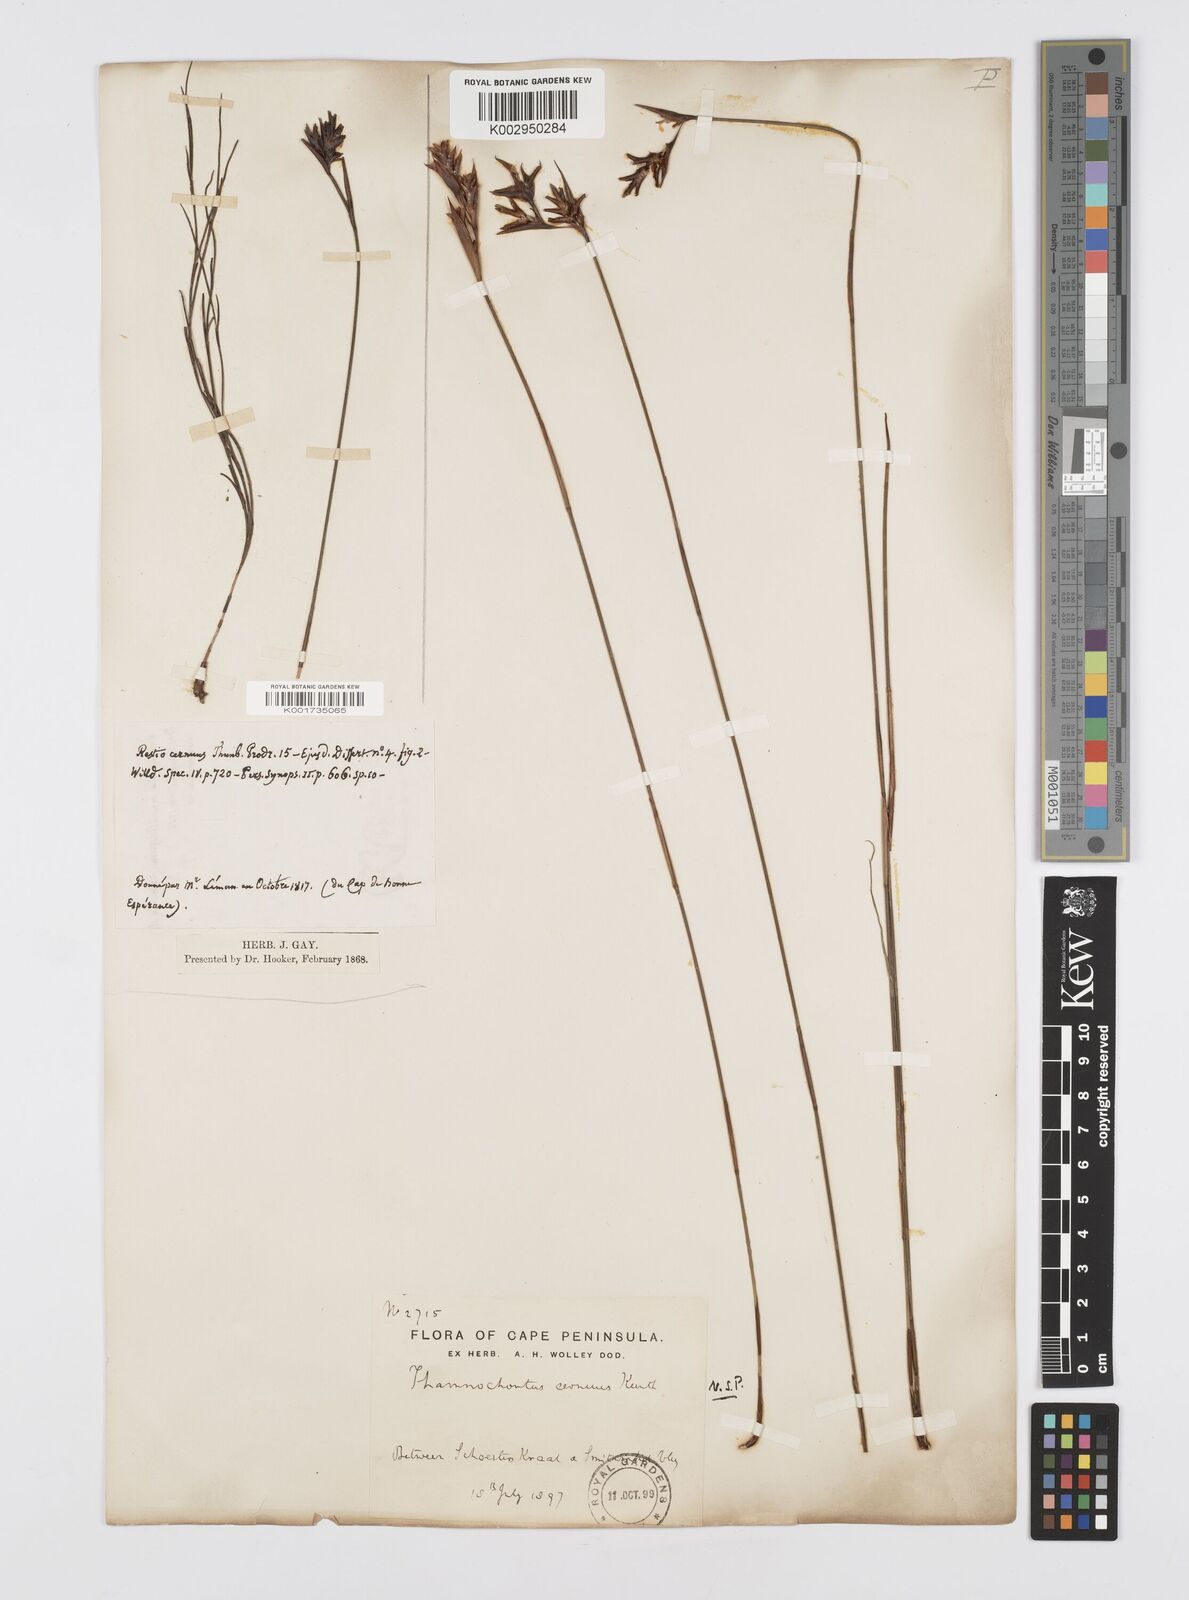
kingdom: Plantae
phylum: Tracheophyta
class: Liliopsida
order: Poales
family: Restionaceae
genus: Staberoha
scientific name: Staberoha cernua
